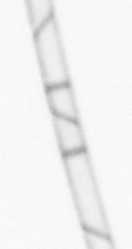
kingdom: Chromista
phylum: Ochrophyta
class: Bacillariophyceae
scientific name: Bacillariophyceae
